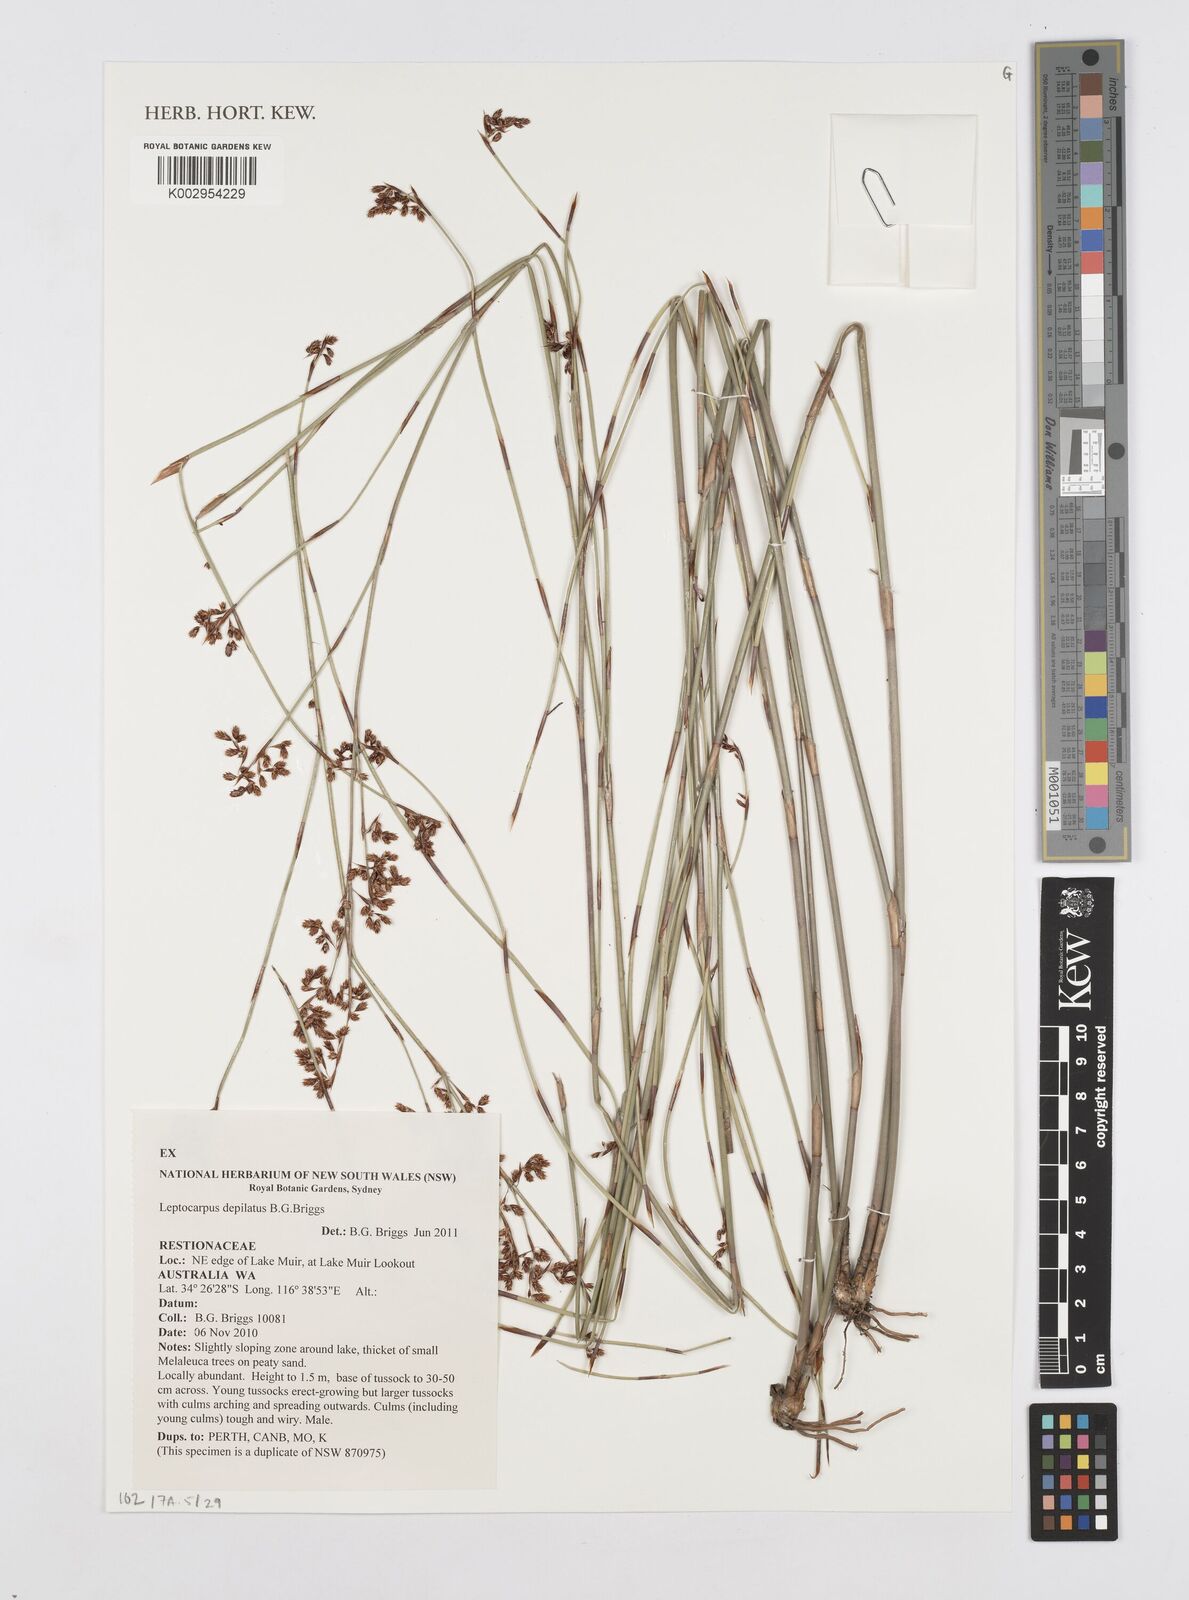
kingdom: Plantae
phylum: Tracheophyta
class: Liliopsida
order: Poales
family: Restionaceae
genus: Leptocarpus
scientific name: Leptocarpus depilatus
